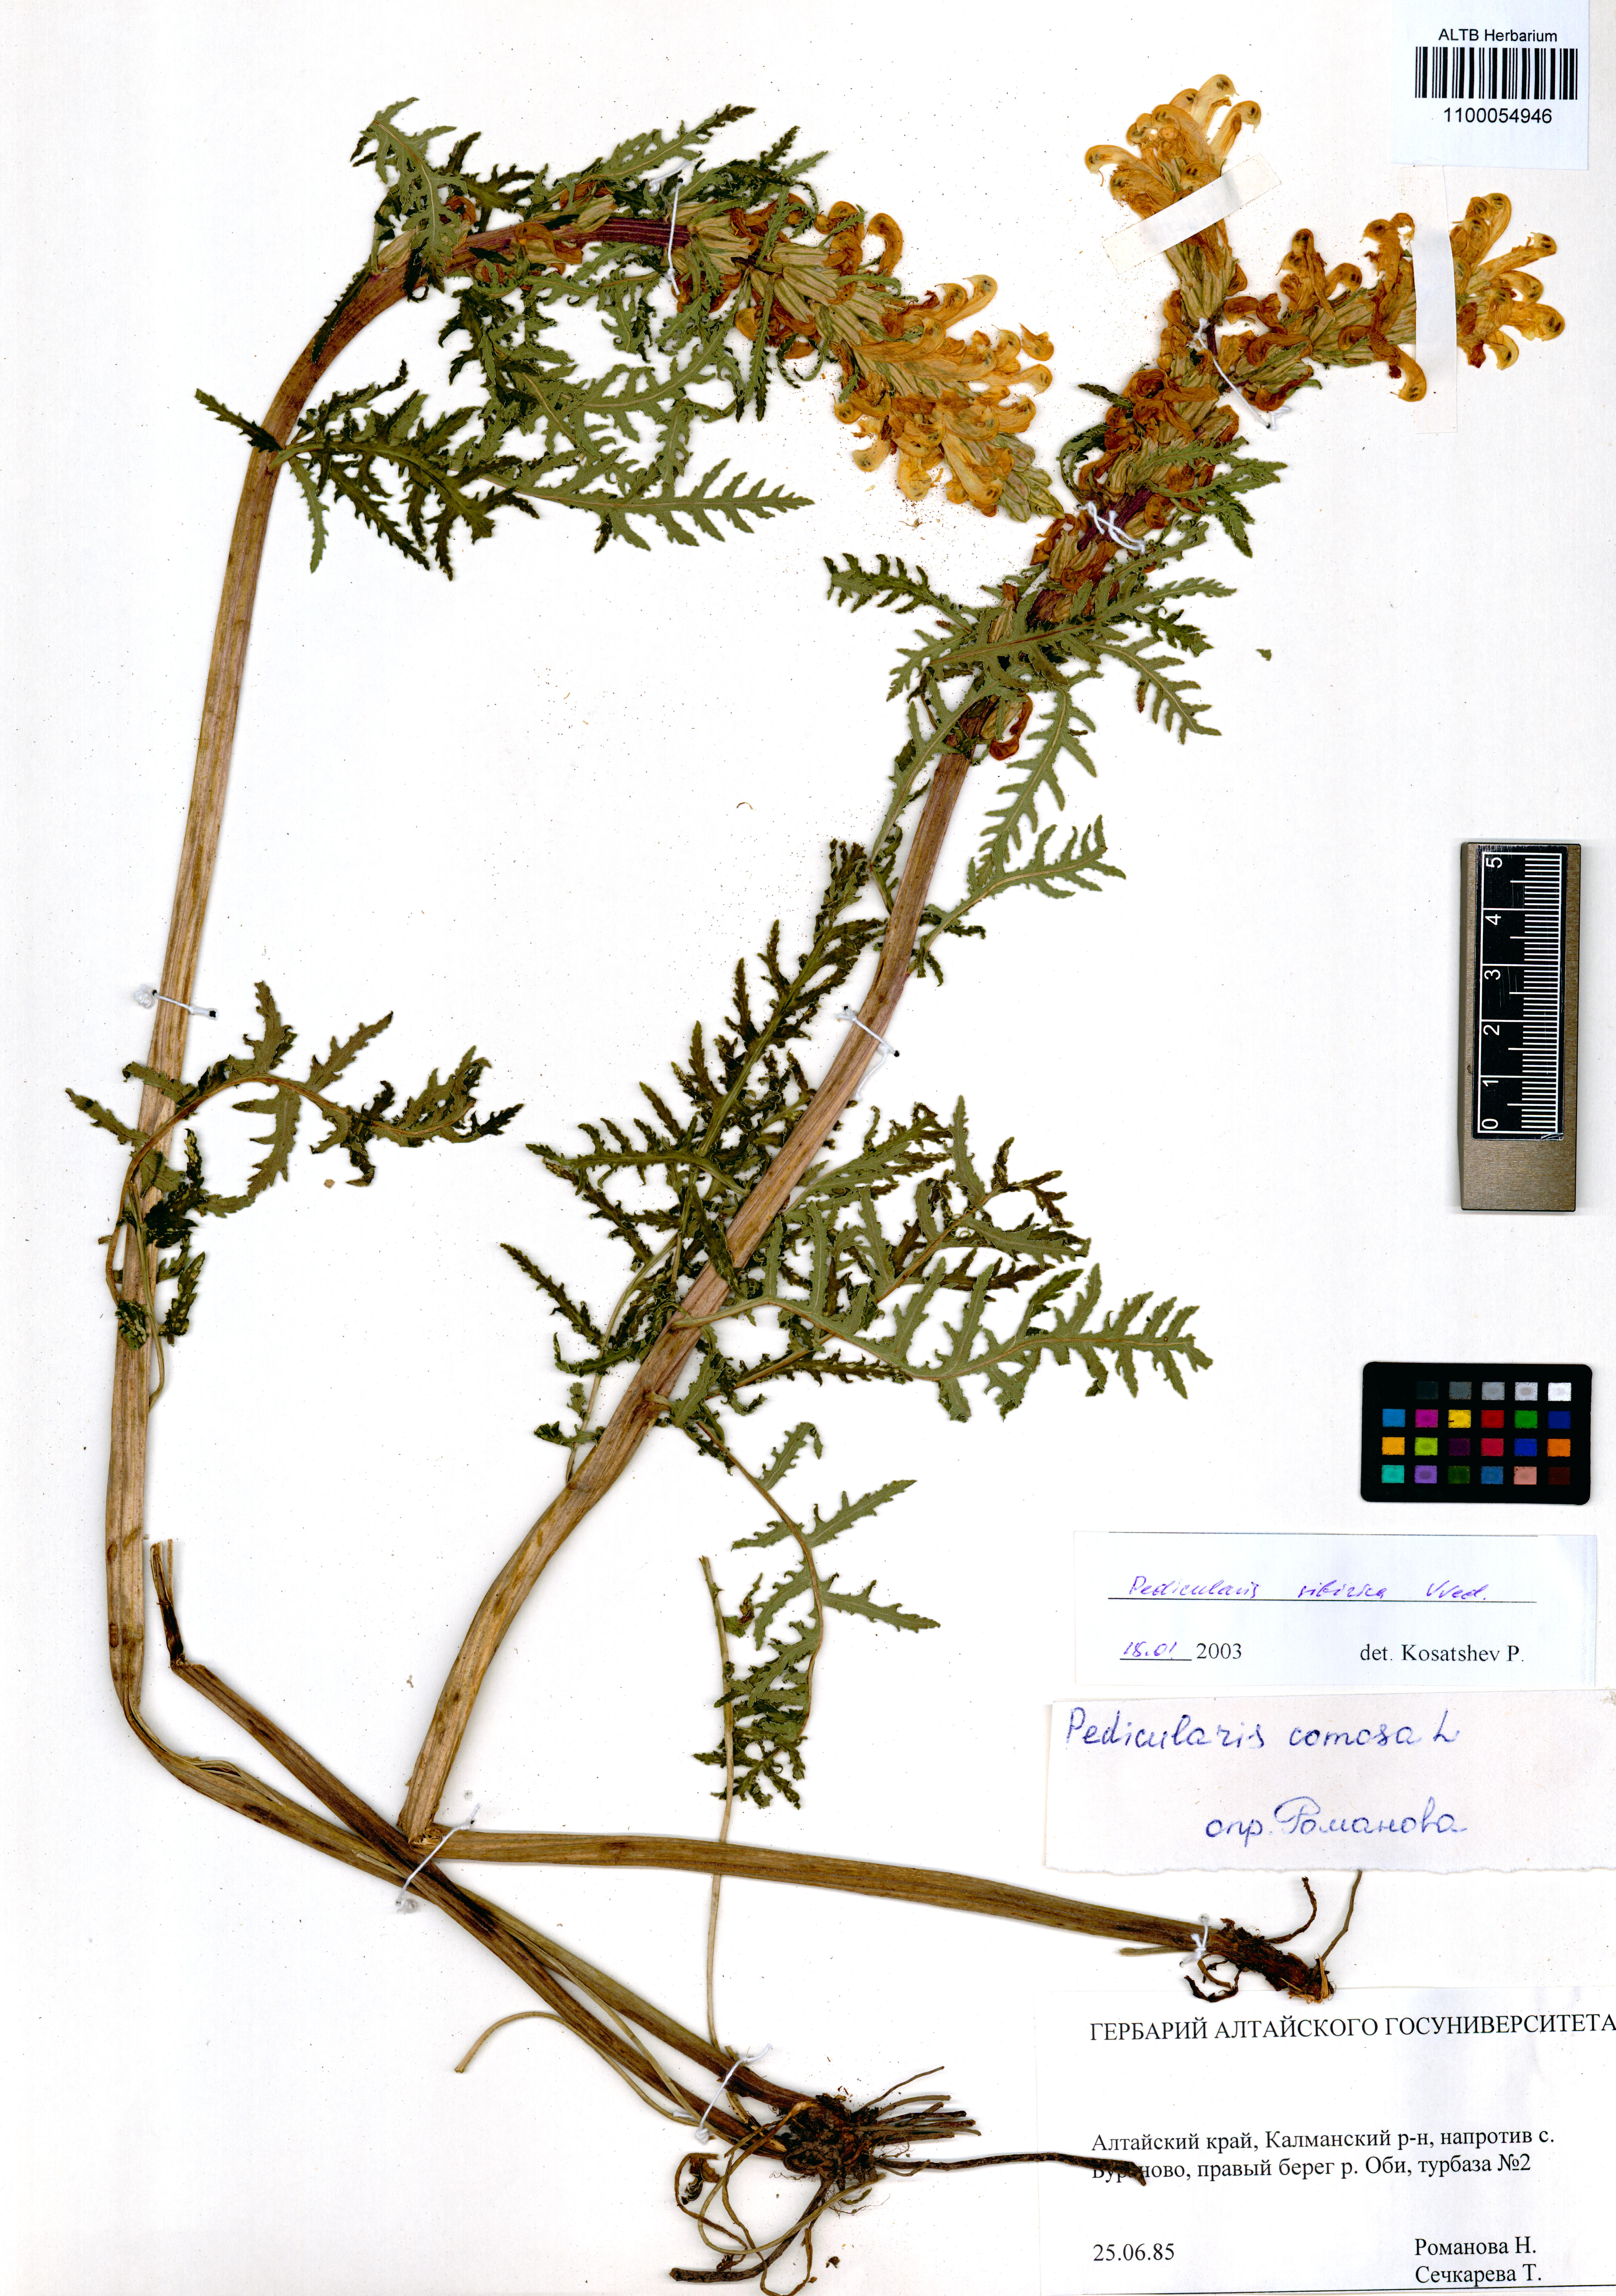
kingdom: Plantae
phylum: Tracheophyta
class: Magnoliopsida
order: Lamiales
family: Orobanchaceae
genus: Pedicularis
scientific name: Pedicularis sibirica
